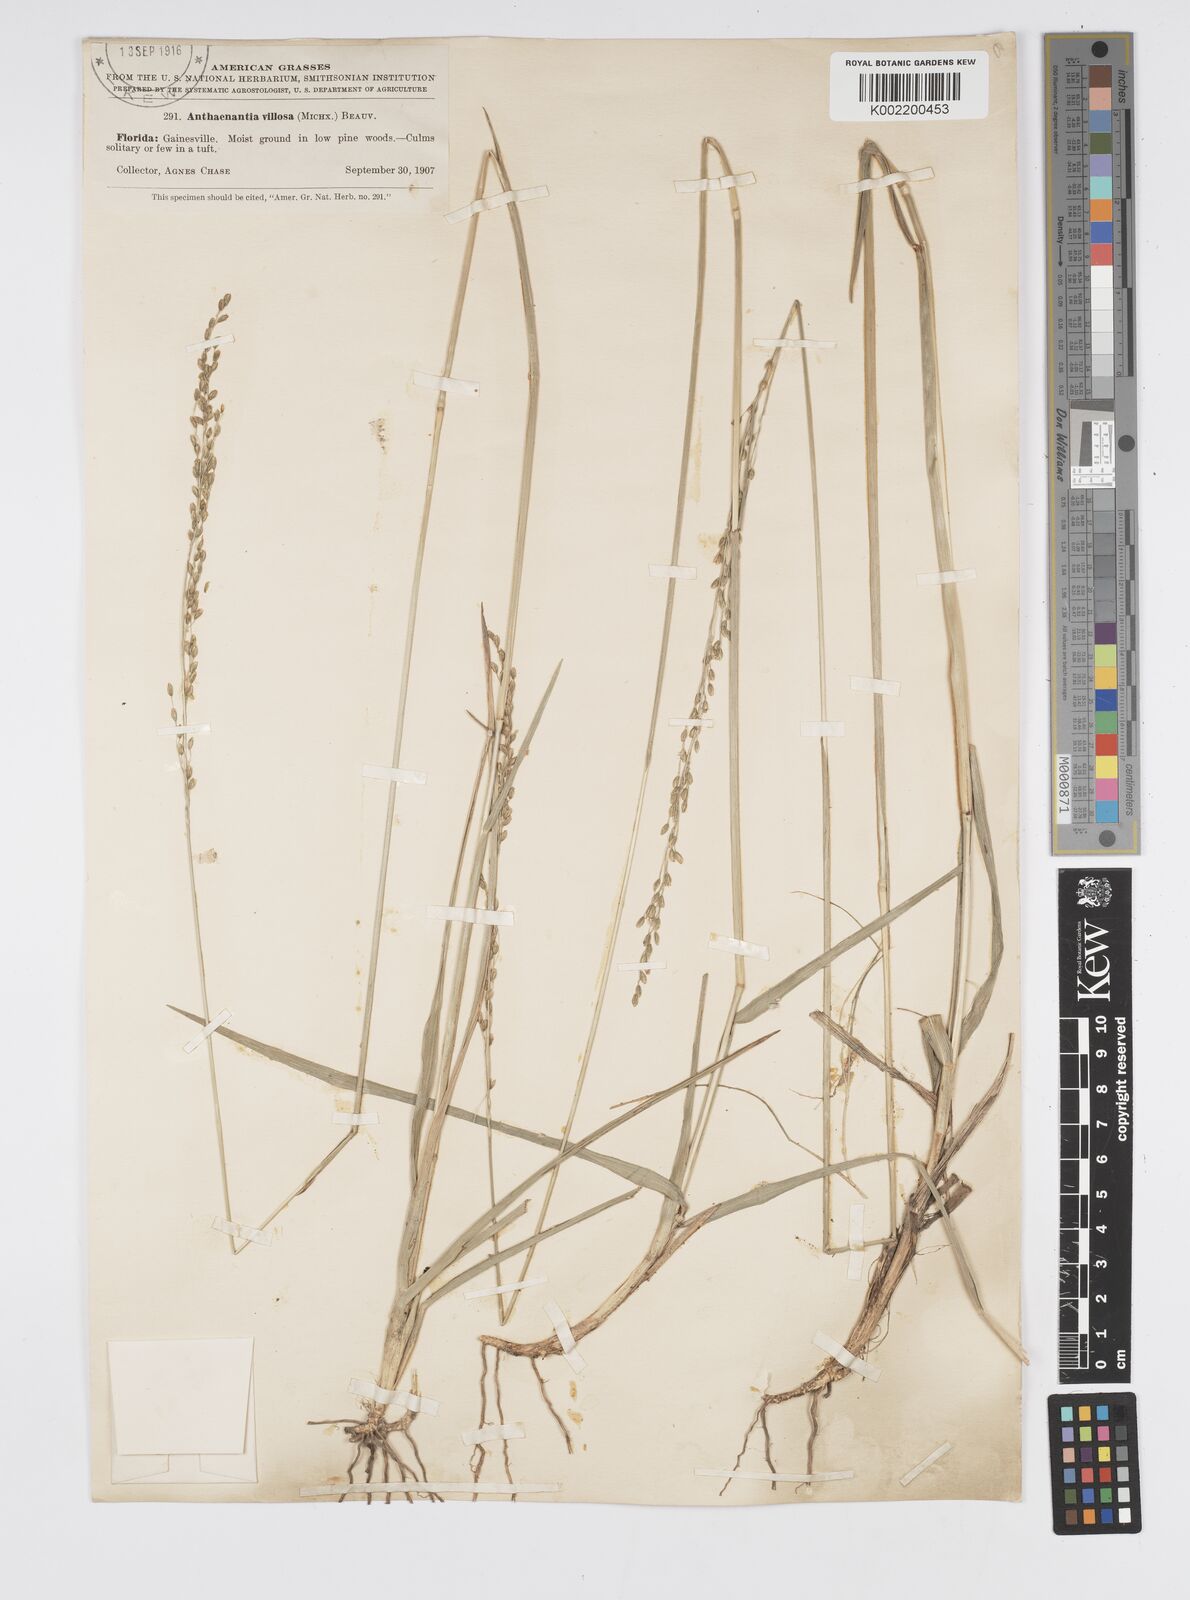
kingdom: Plantae
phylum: Tracheophyta
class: Liliopsida
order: Poales
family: Poaceae
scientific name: Poaceae
